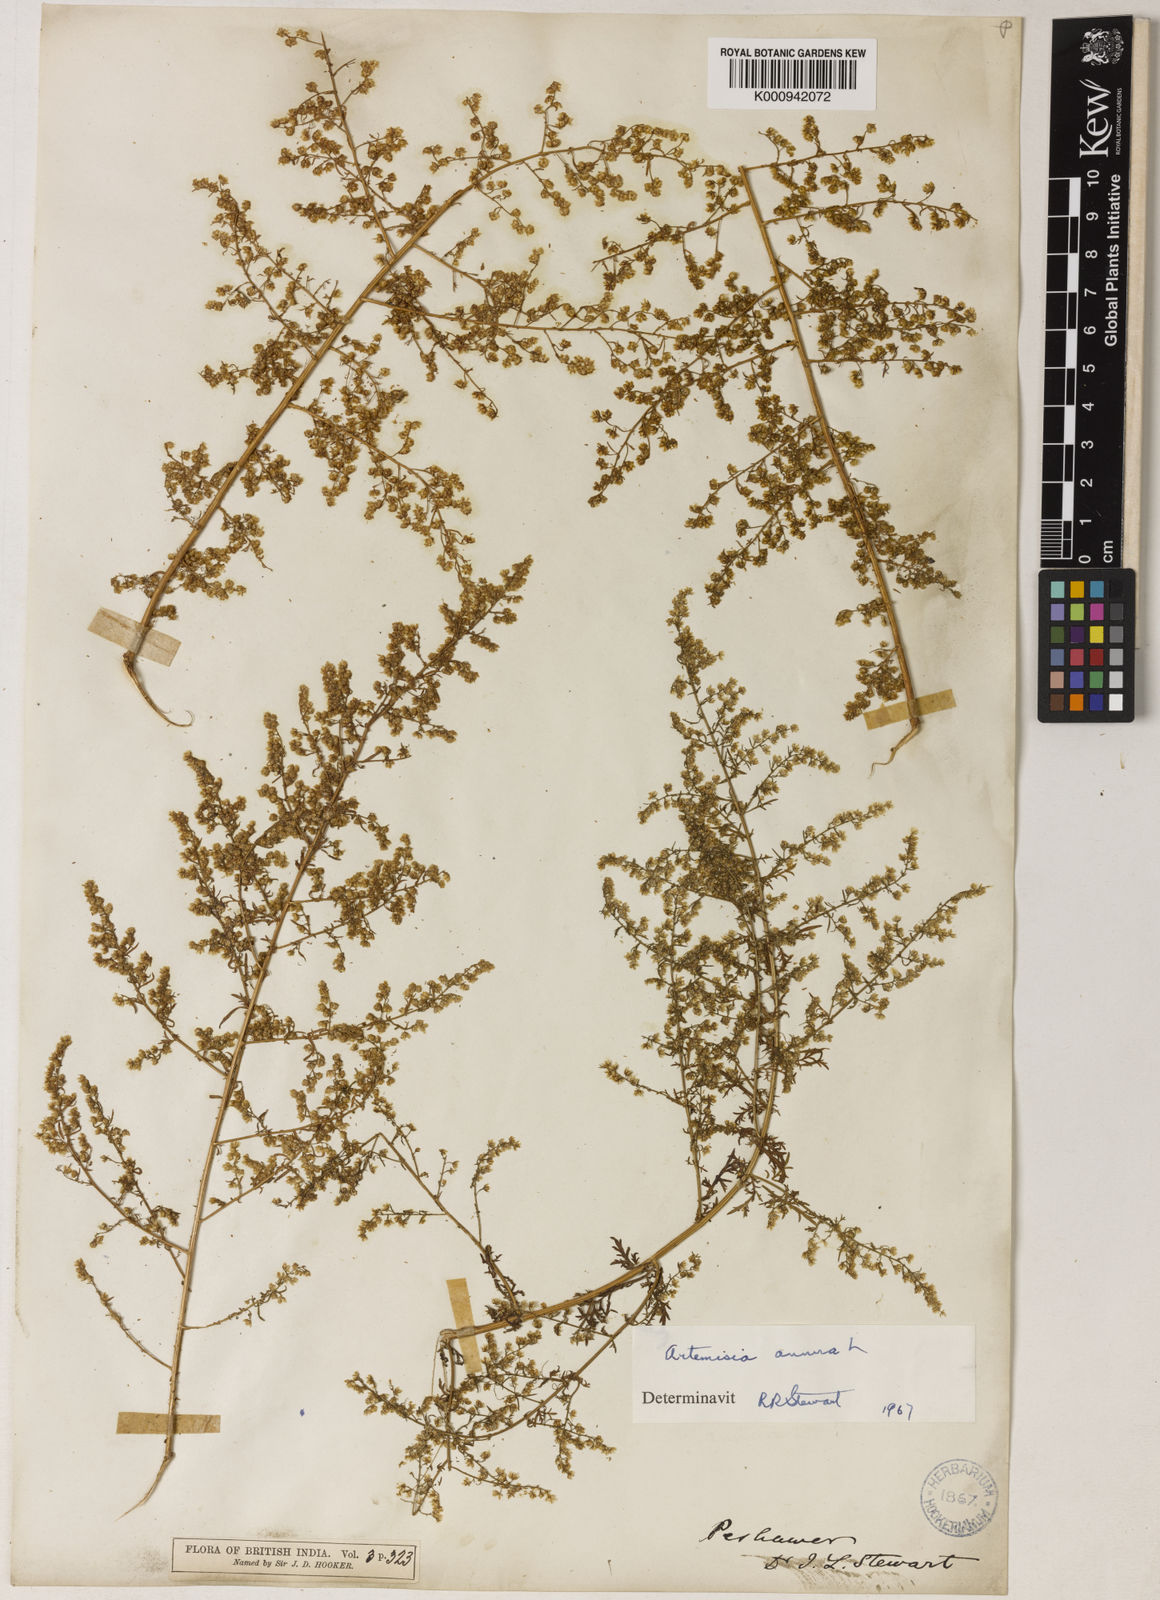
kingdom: Plantae
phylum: Tracheophyta
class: Magnoliopsida
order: Asterales
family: Asteraceae
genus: Artemisia
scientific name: Artemisia annua
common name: Sweet sagewort
